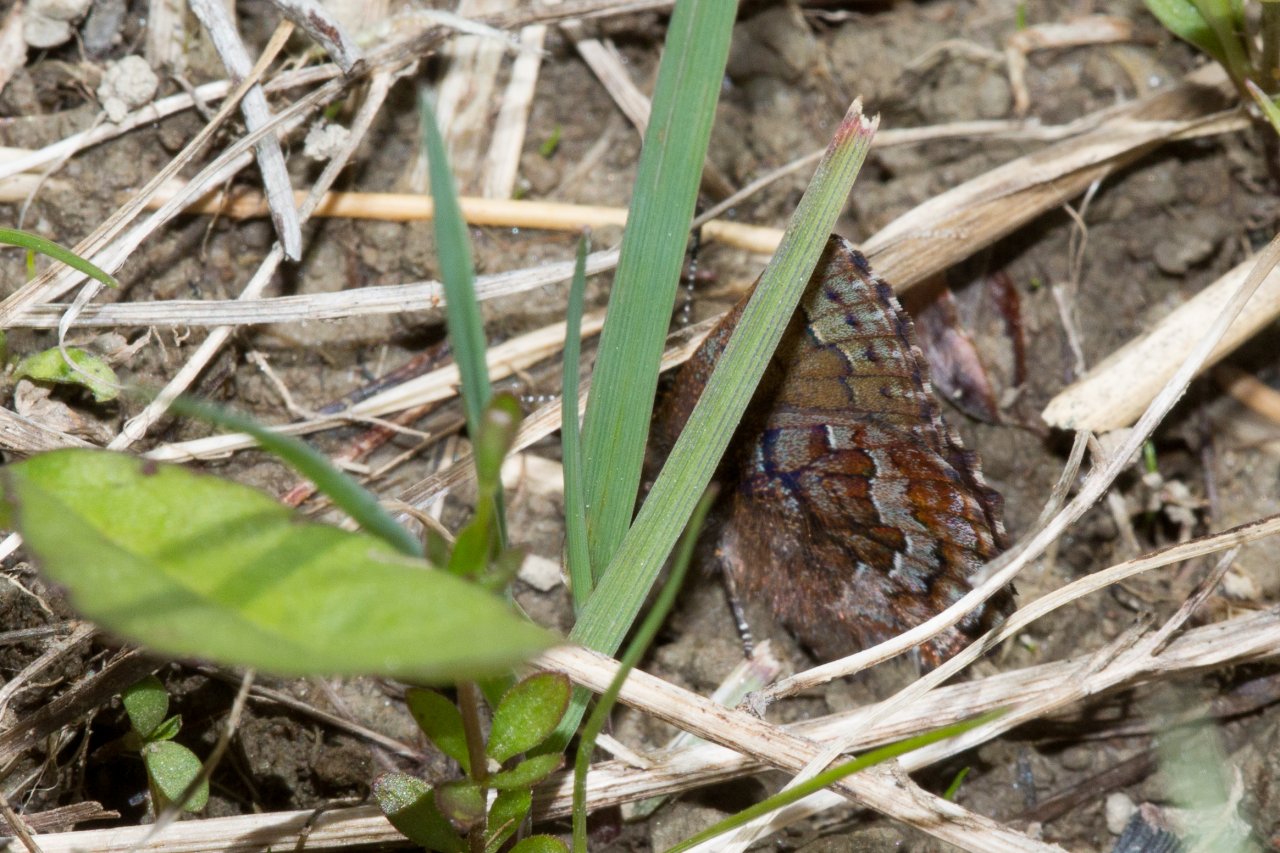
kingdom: Animalia
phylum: Arthropoda
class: Insecta
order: Lepidoptera
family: Lycaenidae
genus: Incisalia
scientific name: Incisalia niphon
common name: Eastern Pine Elfin
